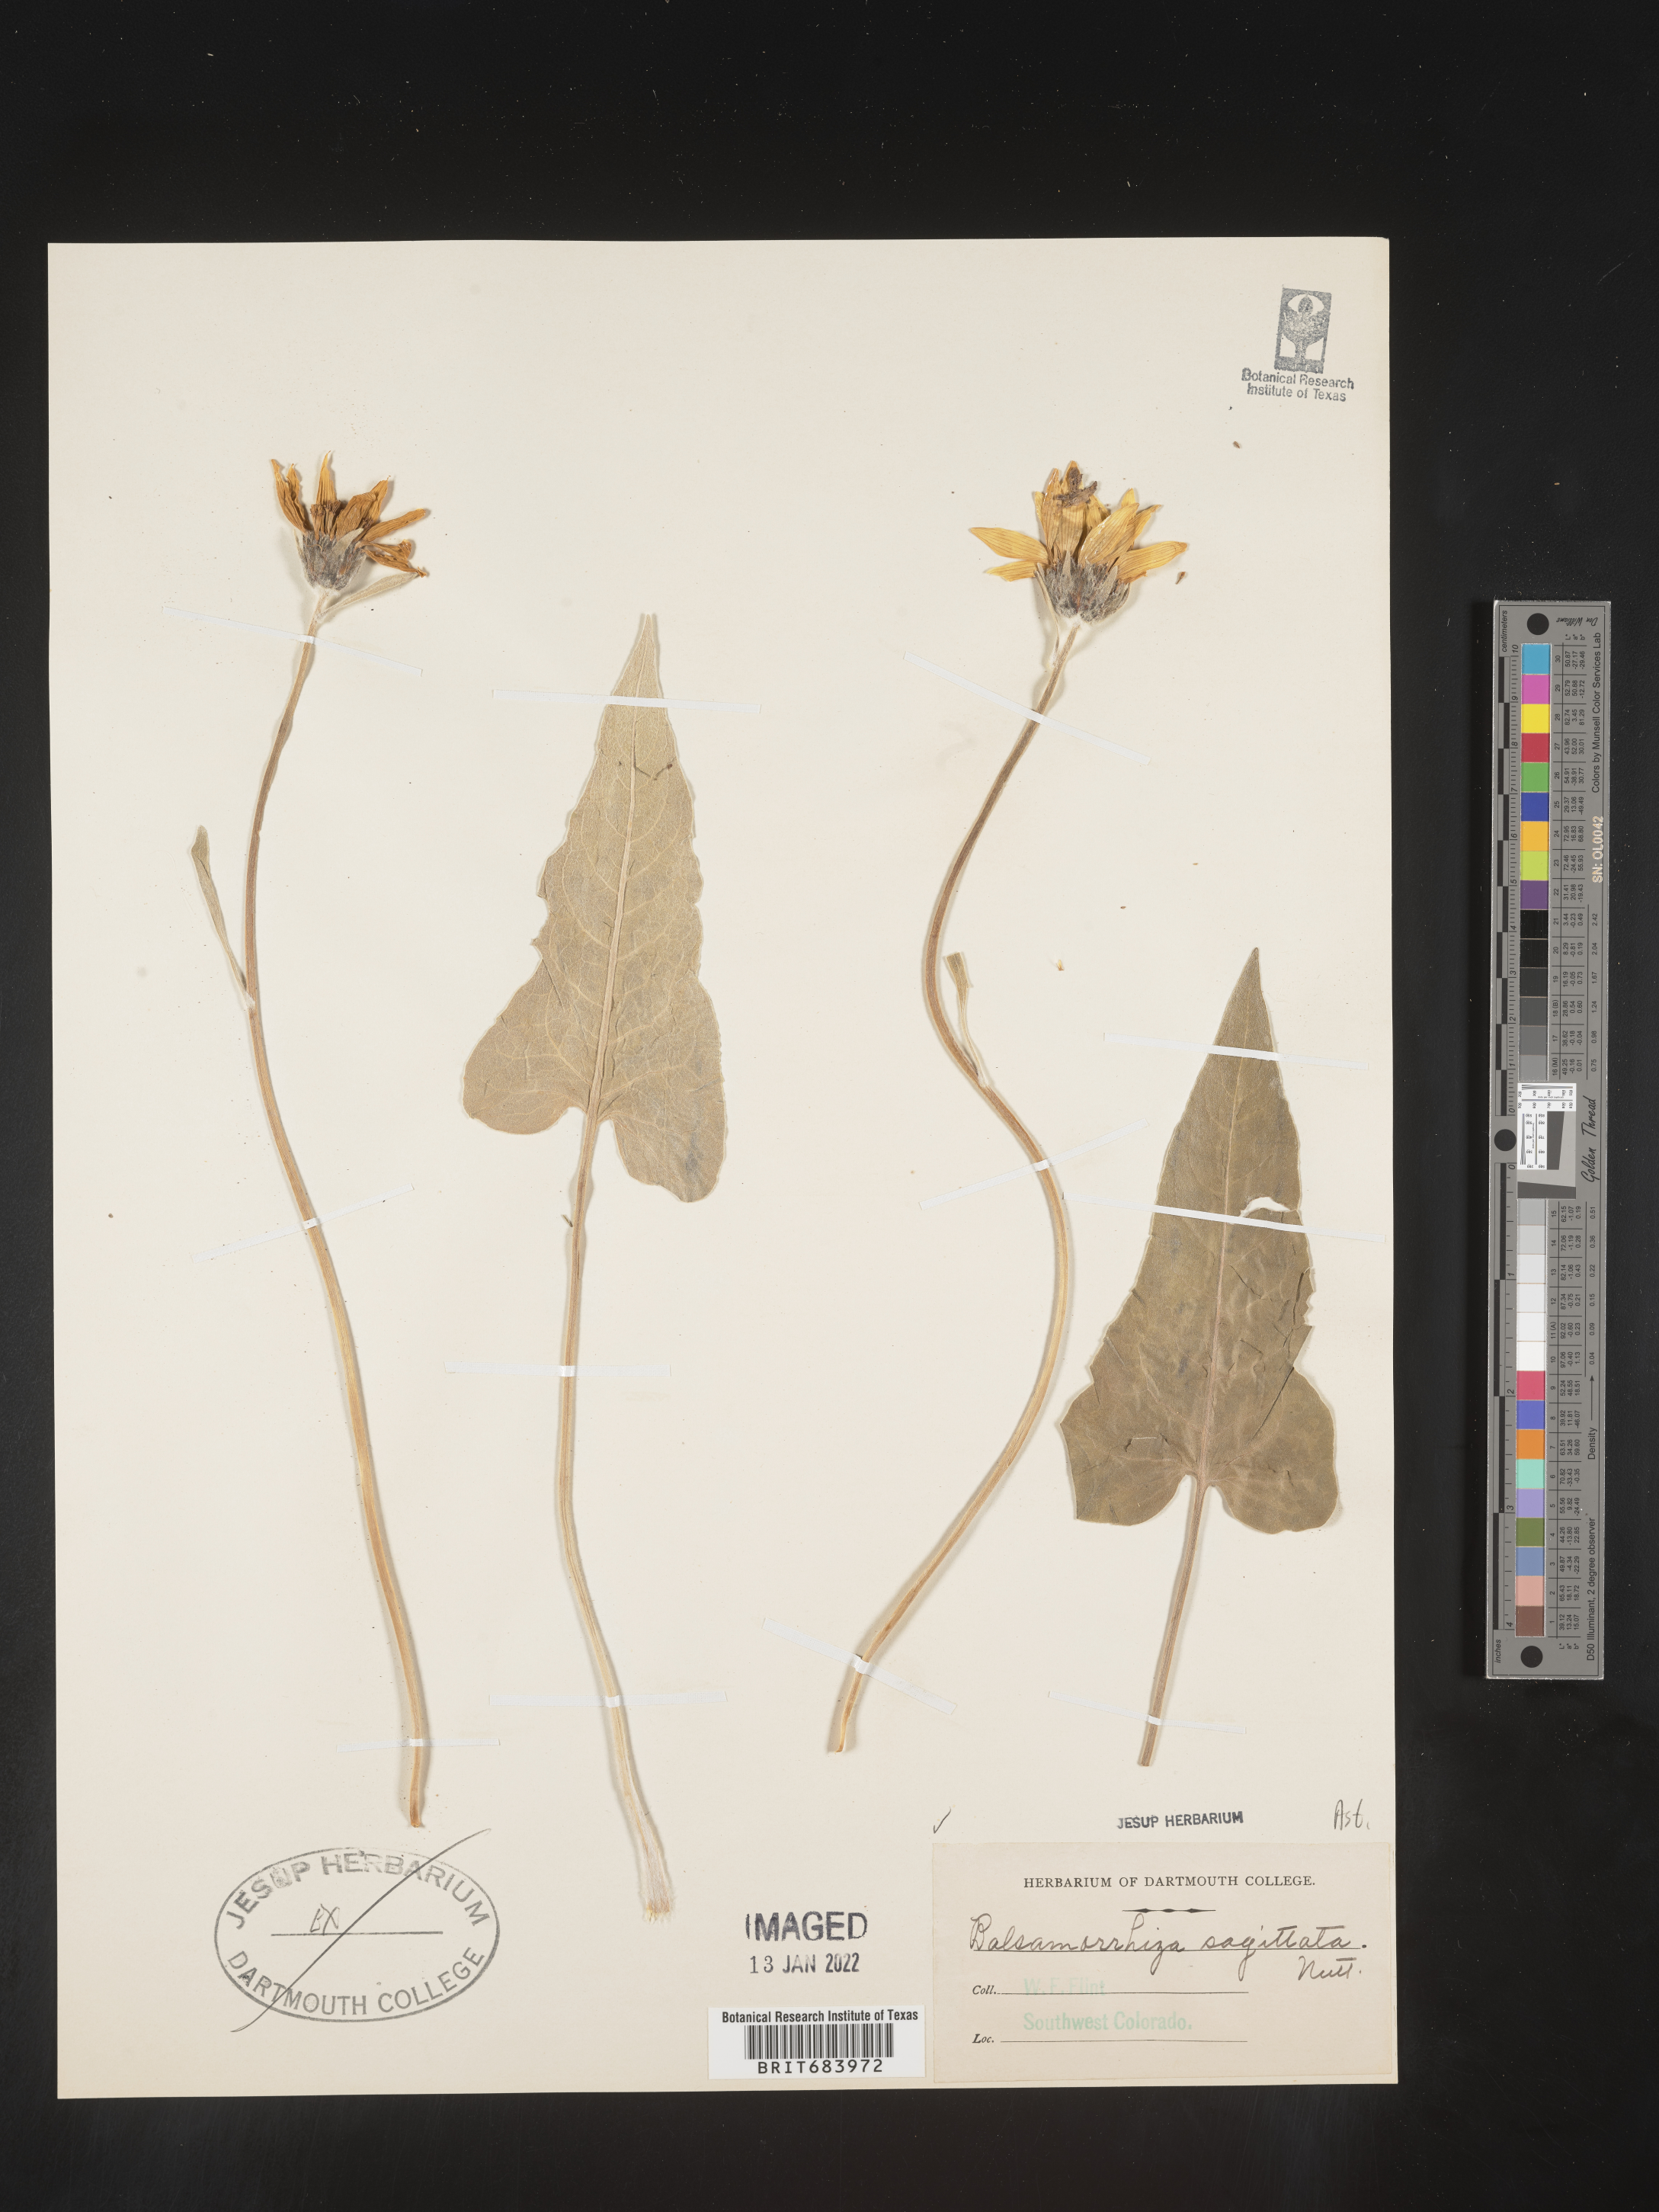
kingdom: Plantae
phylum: Tracheophyta
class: Magnoliopsida
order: Asterales
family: Asteraceae
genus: Wyethia
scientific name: Wyethia sagittata
